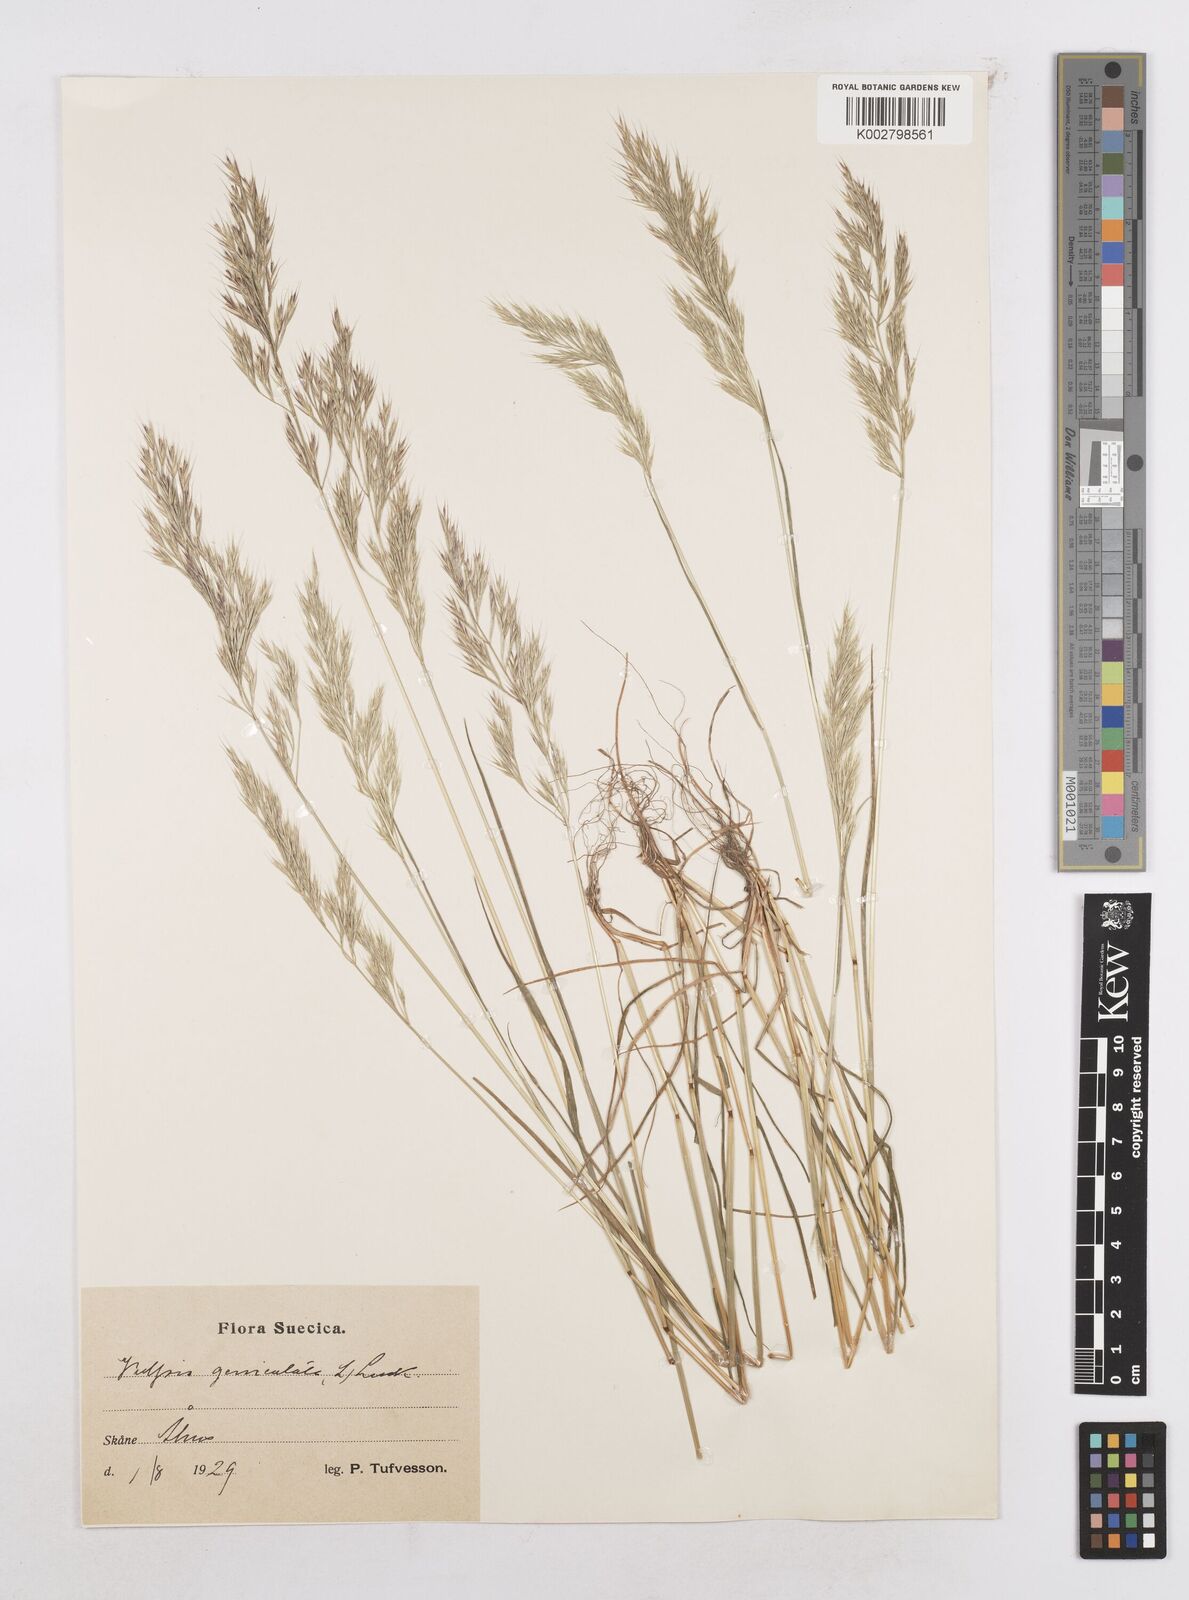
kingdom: Plantae
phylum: Tracheophyta
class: Liliopsida
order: Poales
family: Poaceae
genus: Festuca
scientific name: Festuca geniculata
